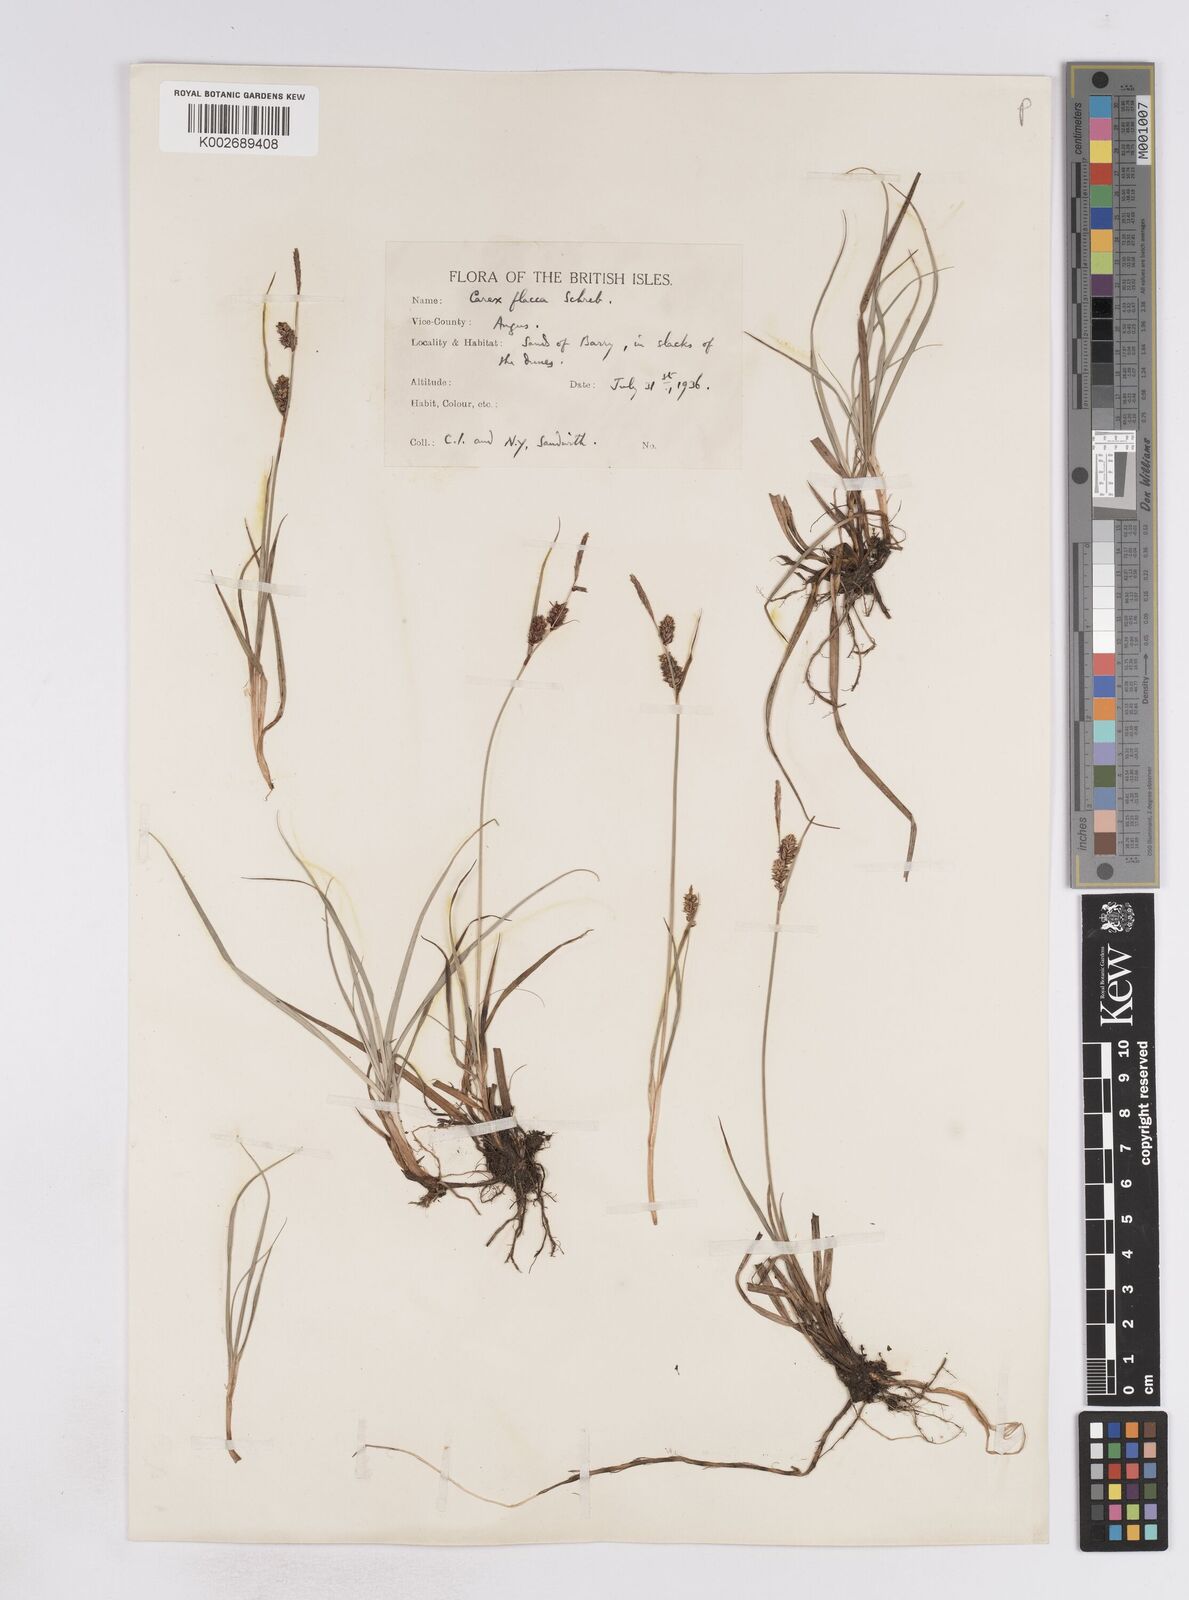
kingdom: Plantae
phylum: Tracheophyta
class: Liliopsida
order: Poales
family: Cyperaceae
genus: Carex
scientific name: Carex flacca
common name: Glaucous sedge
